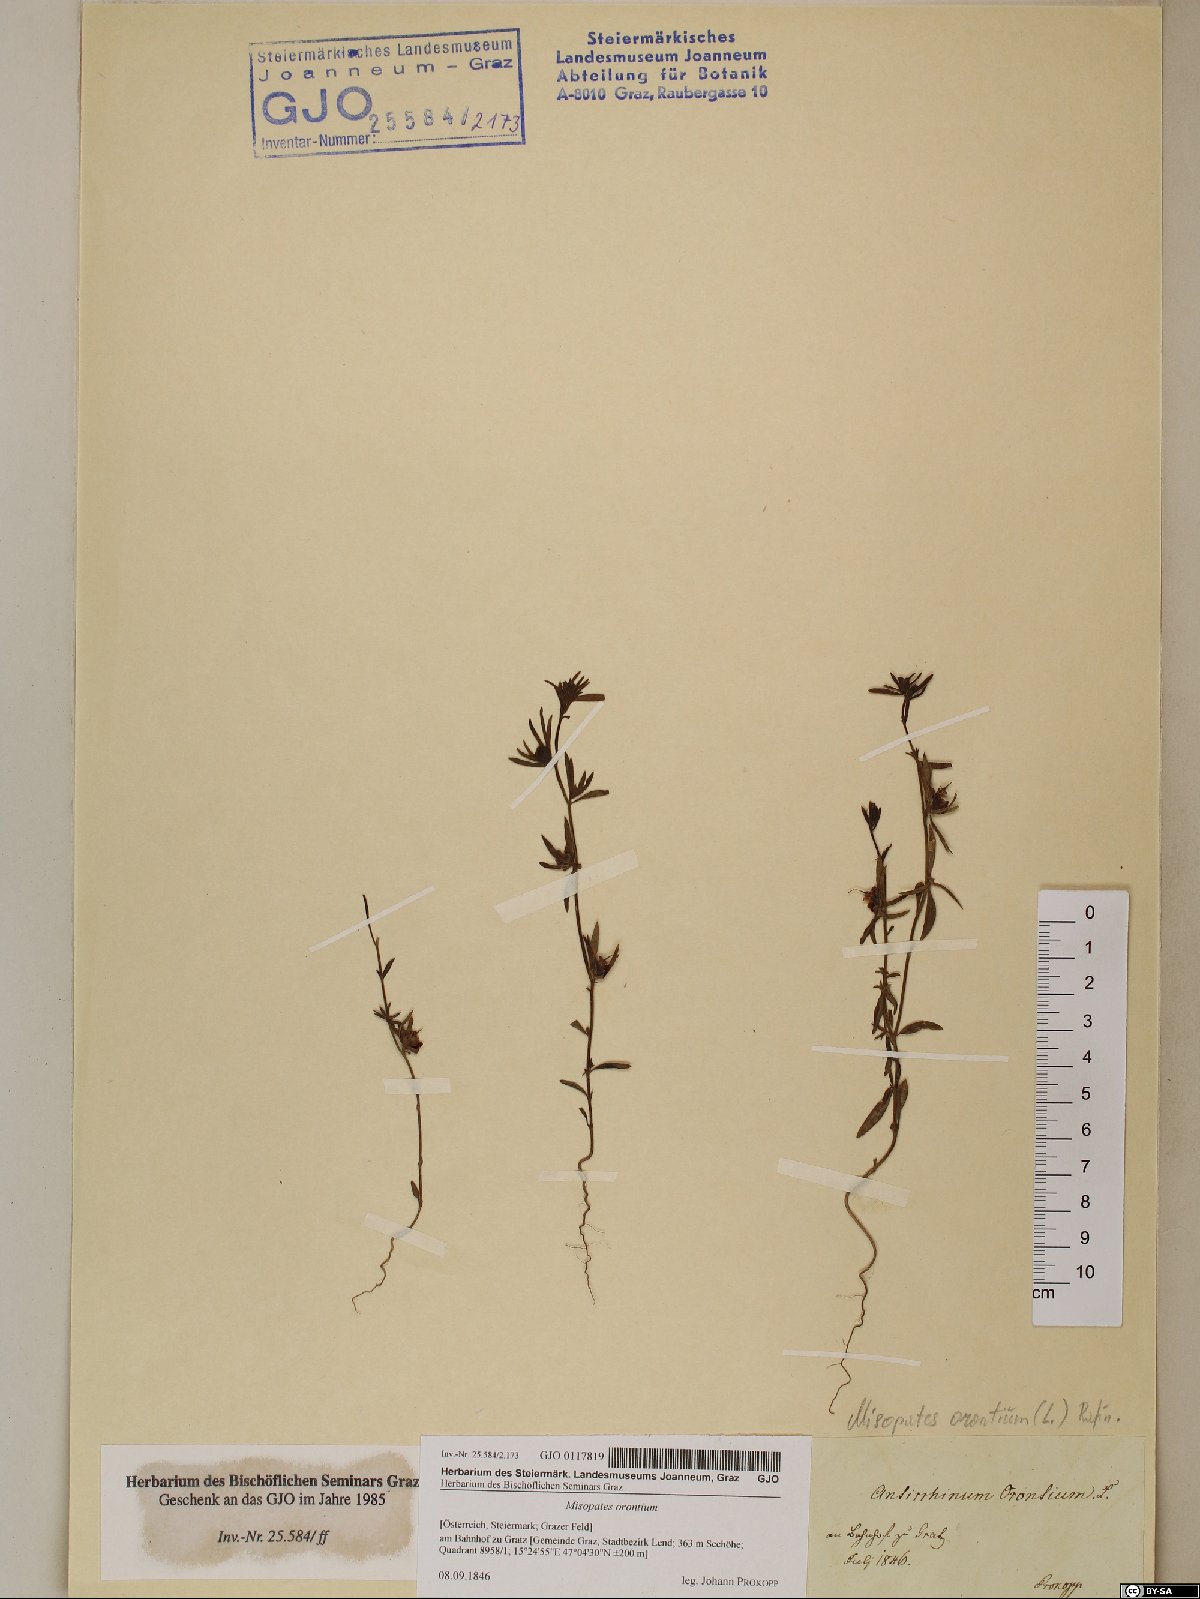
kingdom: Plantae
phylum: Tracheophyta
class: Magnoliopsida
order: Lamiales
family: Plantaginaceae
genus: Misopates
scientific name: Misopates orontium
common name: Weasel's-snout
